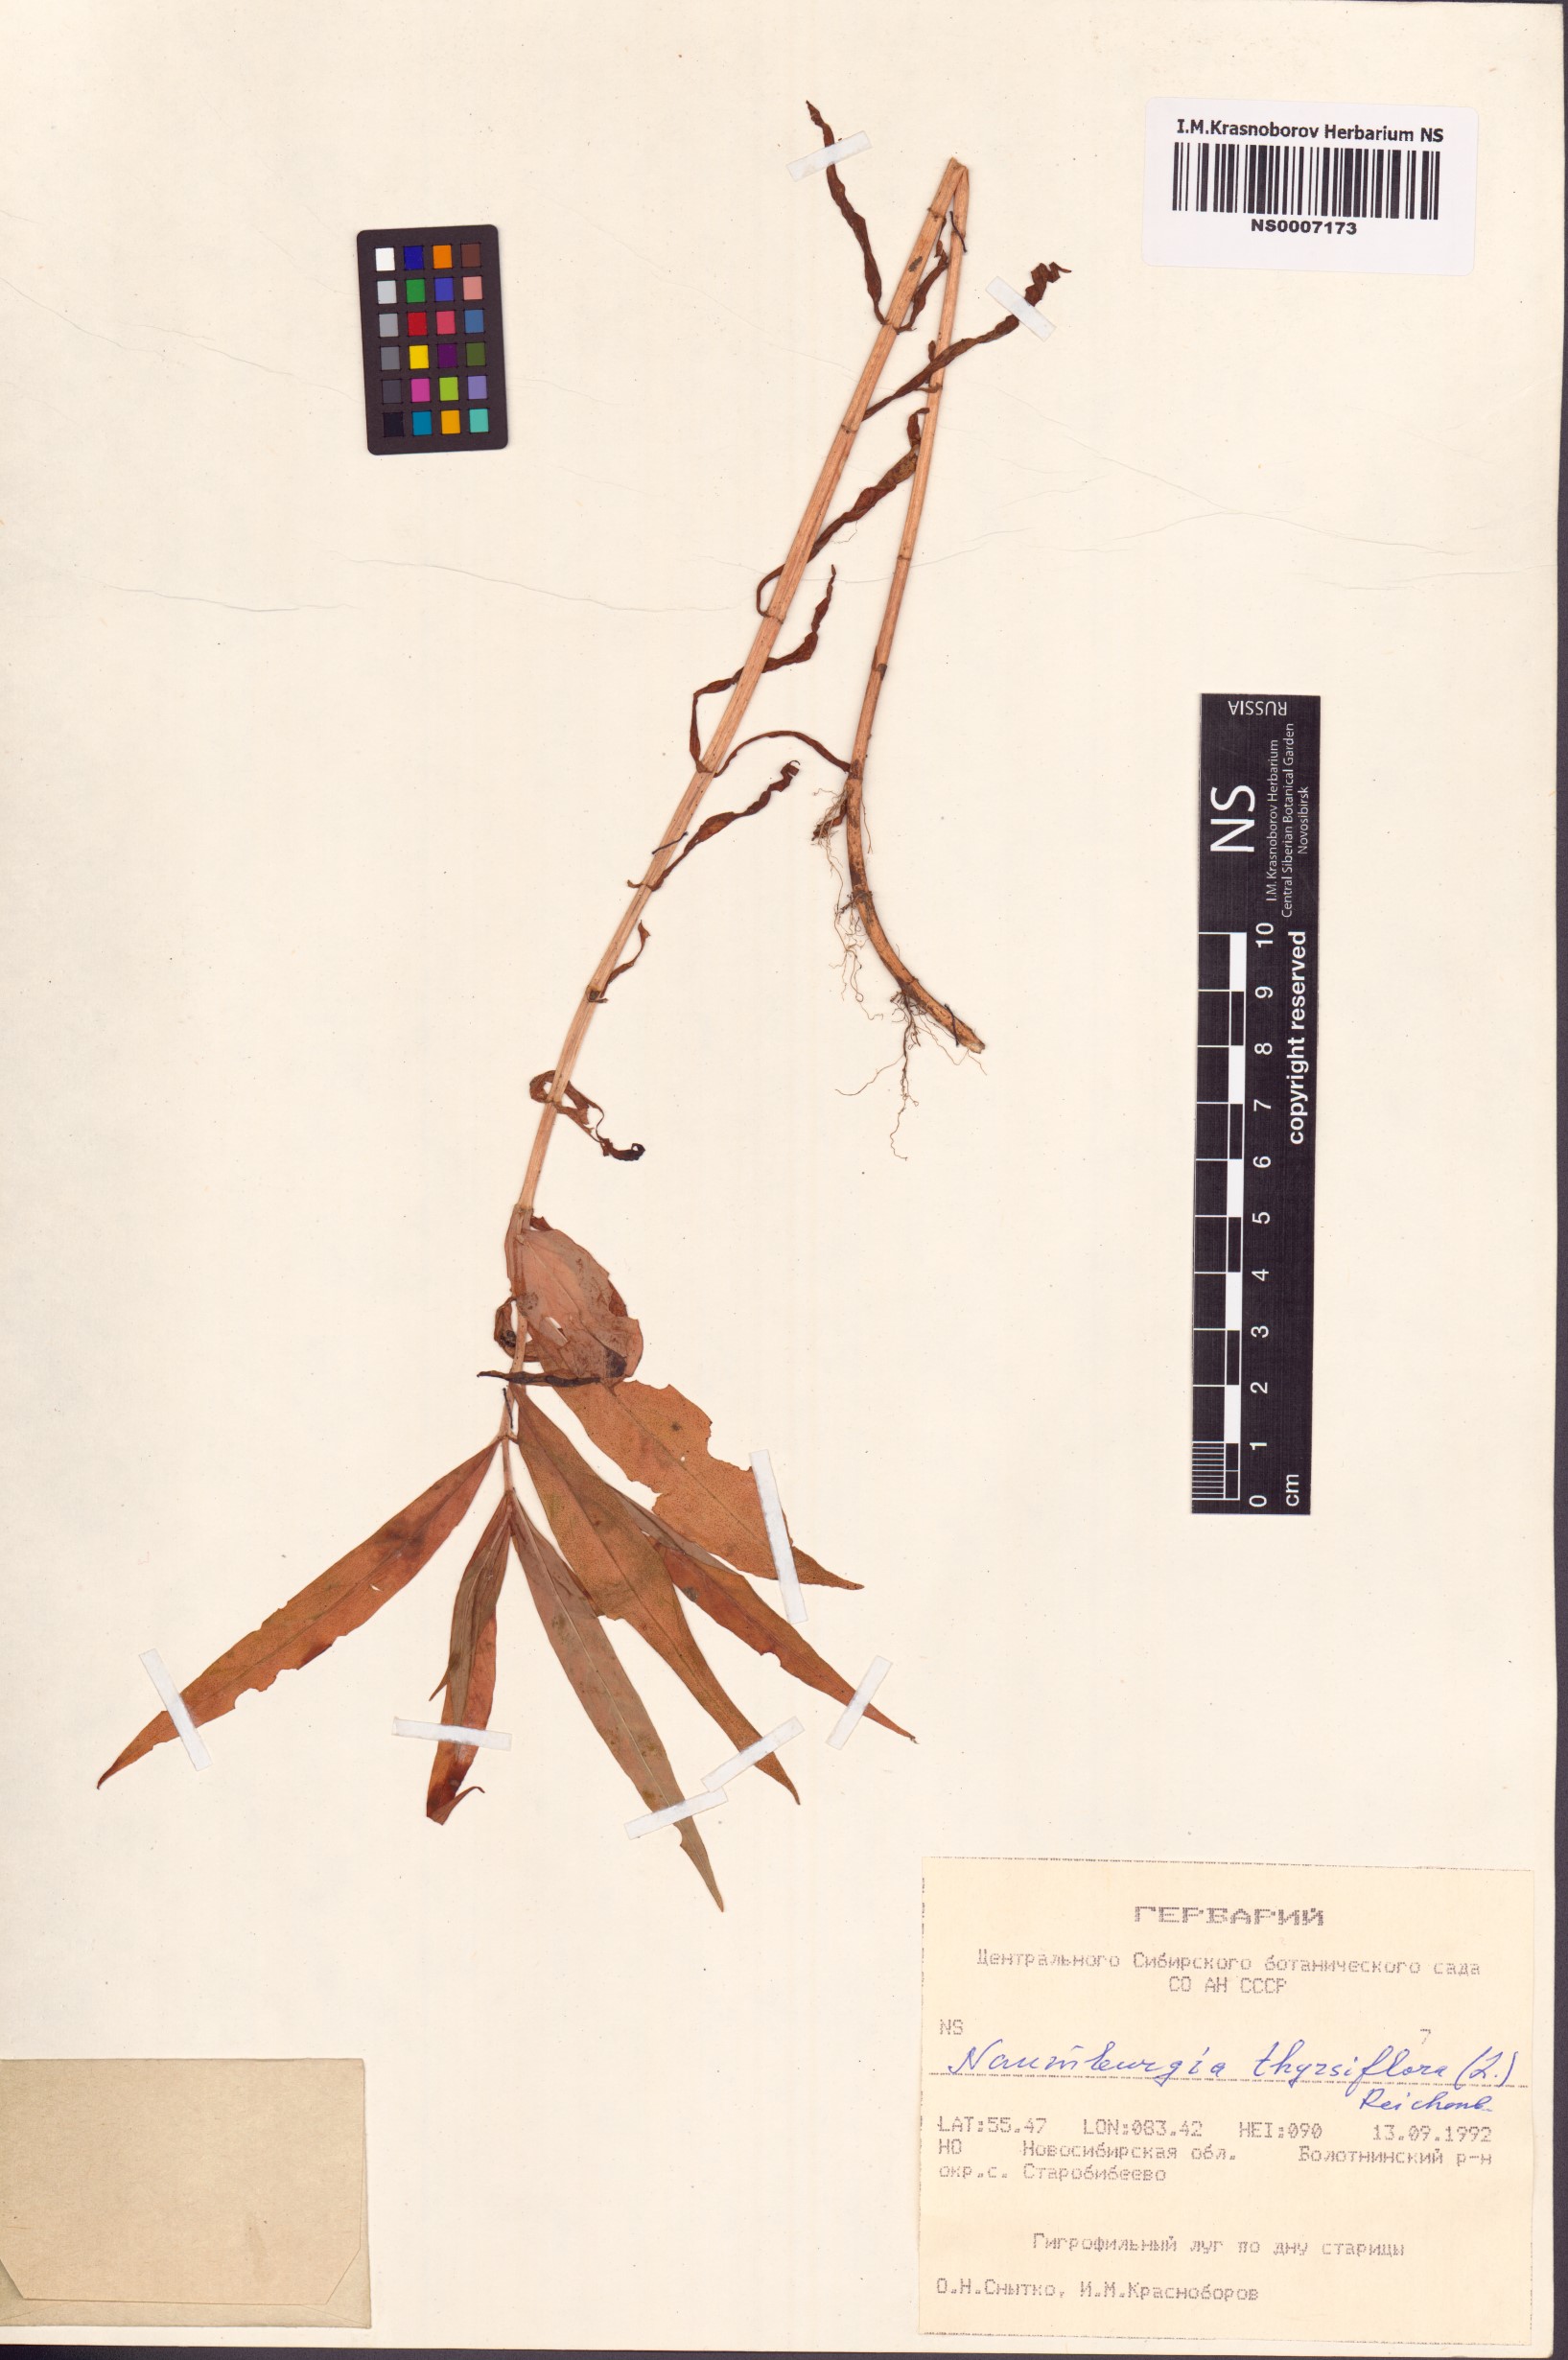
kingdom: Plantae
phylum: Tracheophyta
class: Magnoliopsida
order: Ericales
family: Primulaceae
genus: Lysimachia
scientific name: Lysimachia thyrsiflora
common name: Tufted loosestrife
